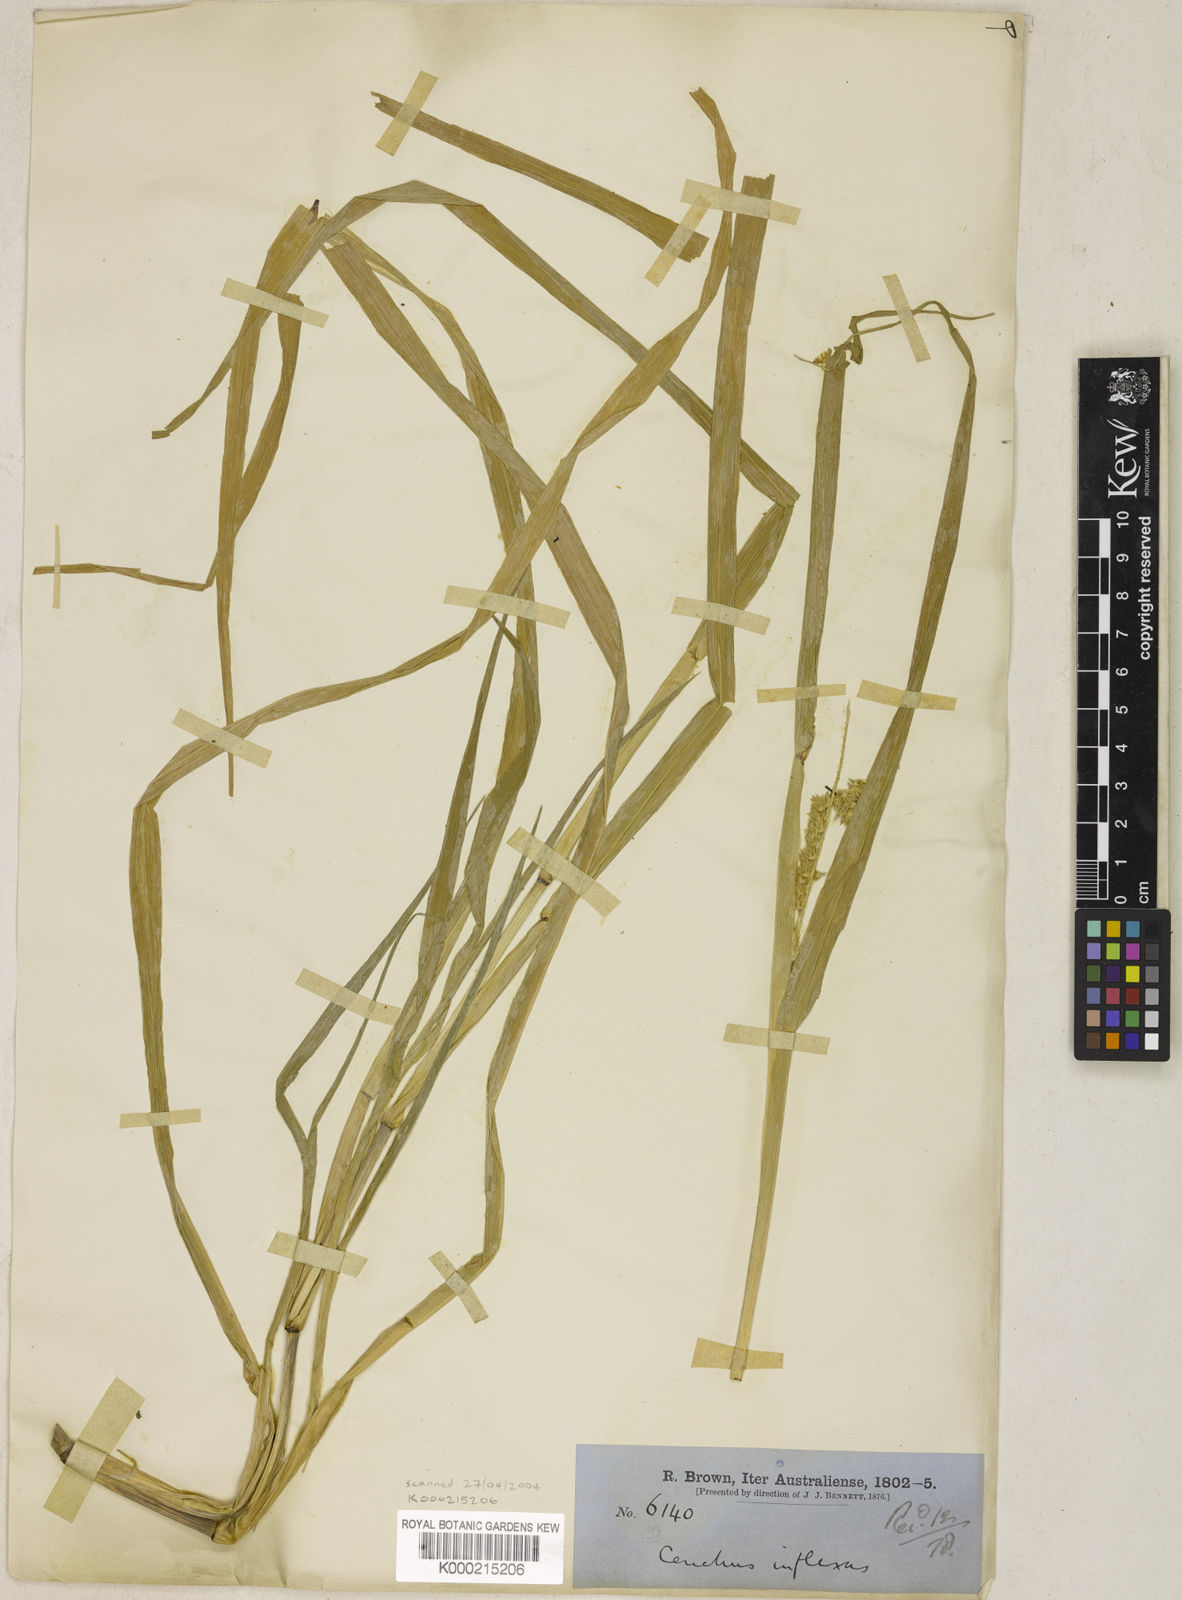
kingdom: Plantae
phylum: Tracheophyta
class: Liliopsida
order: Poales
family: Poaceae
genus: Cenchrus
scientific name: Cenchrus brownii
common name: Slim-bristle sandbur
